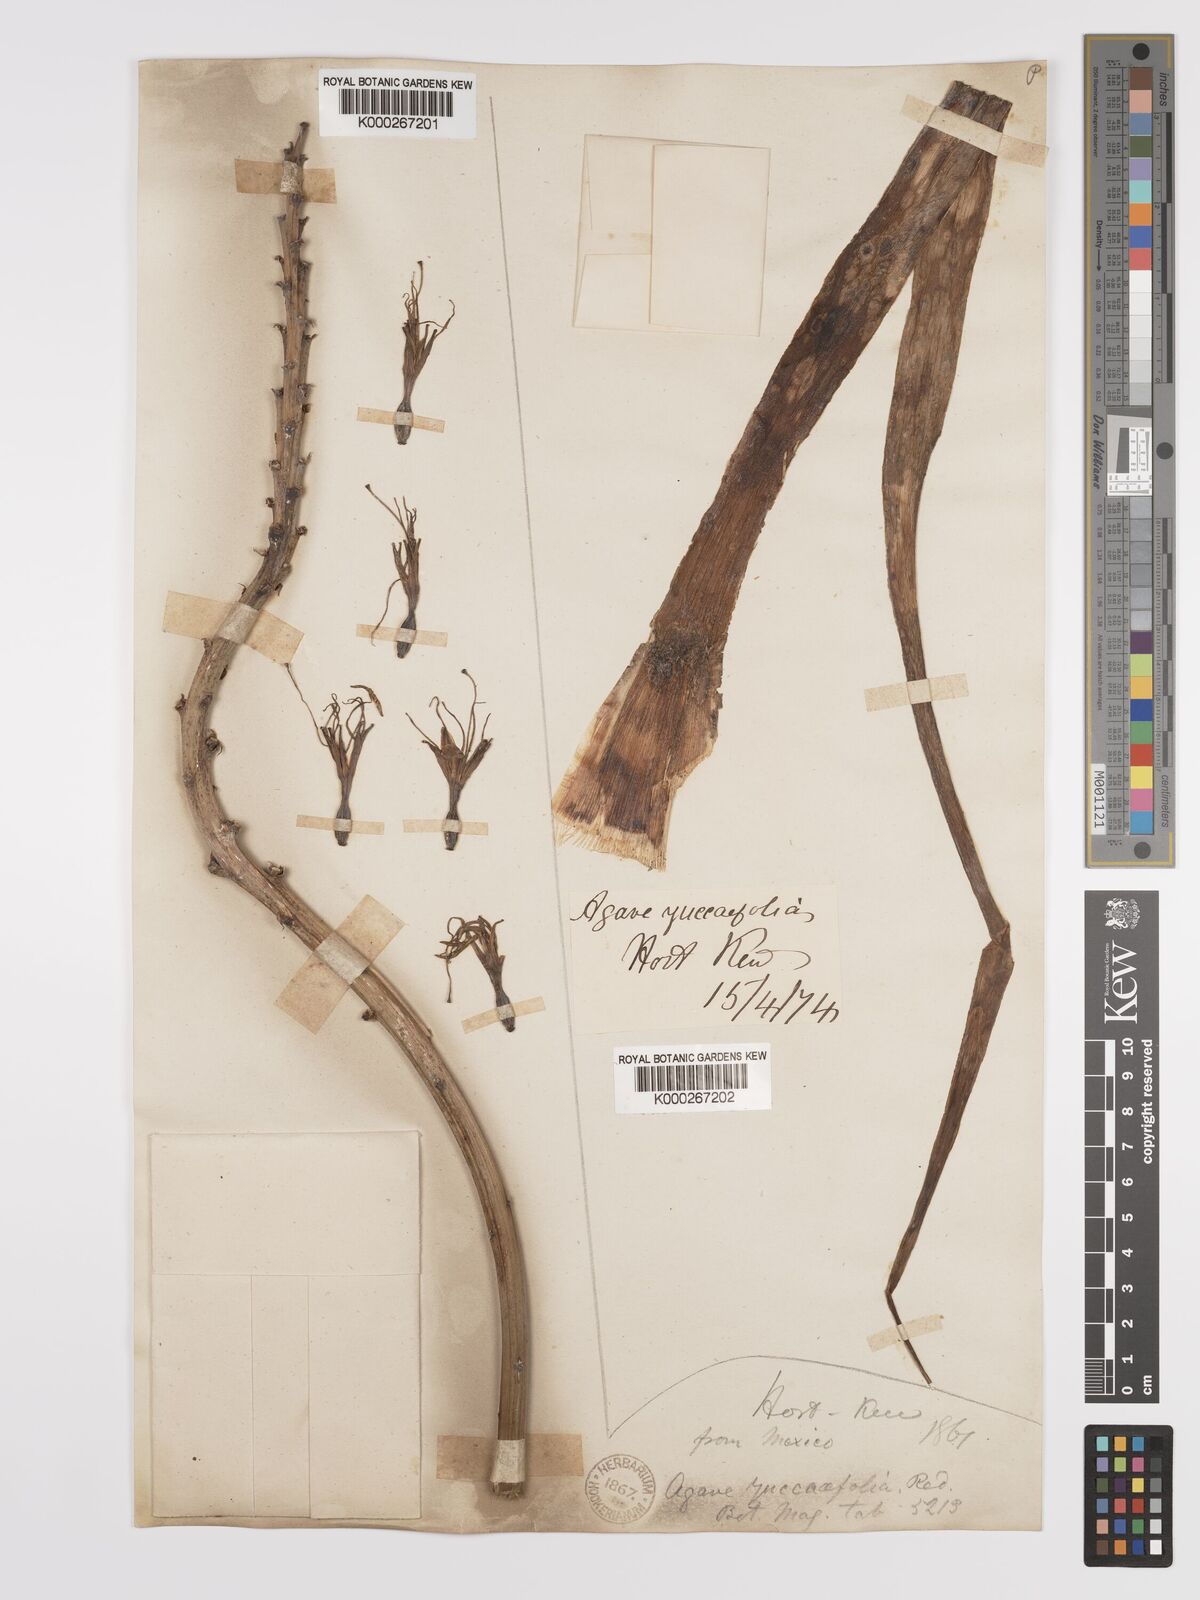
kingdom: Plantae
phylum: Tracheophyta
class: Liliopsida
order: Asparagales
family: Asparagaceae
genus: Agave
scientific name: Agave spicata
